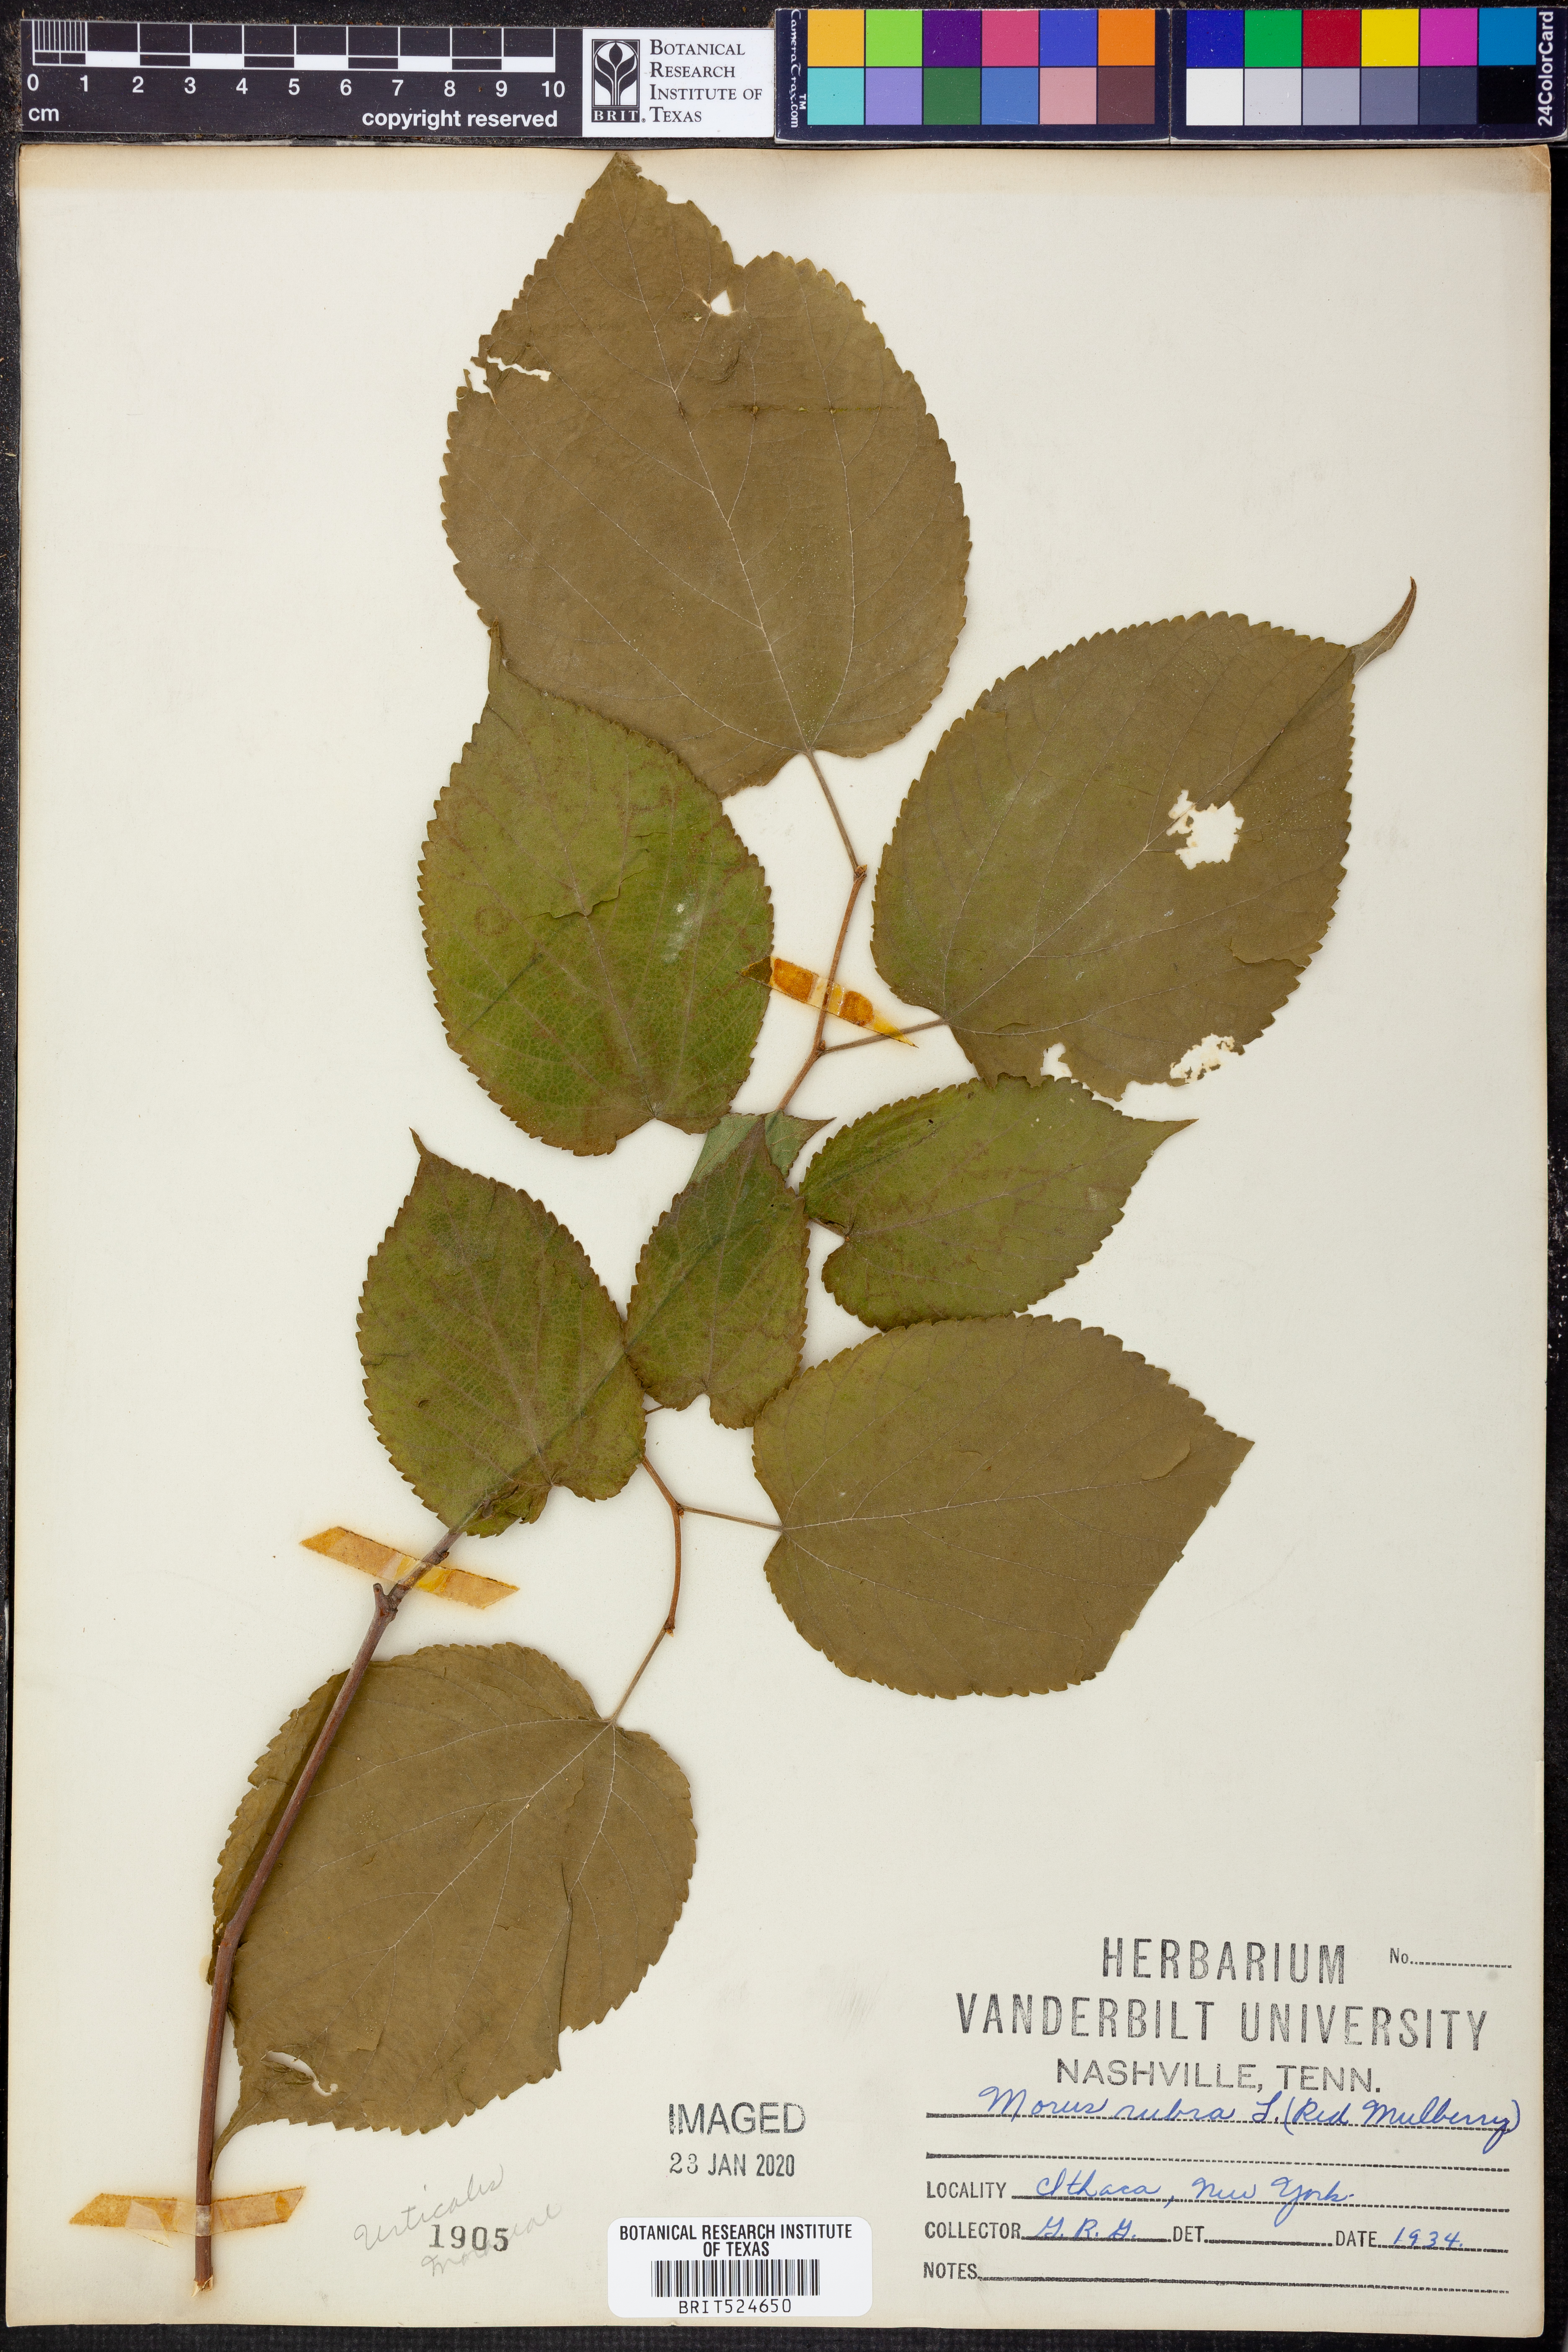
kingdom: Plantae
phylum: Tracheophyta
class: Magnoliopsida
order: Rosales
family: Moraceae
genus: Morus
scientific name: Morus rubra
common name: Red mulberry
